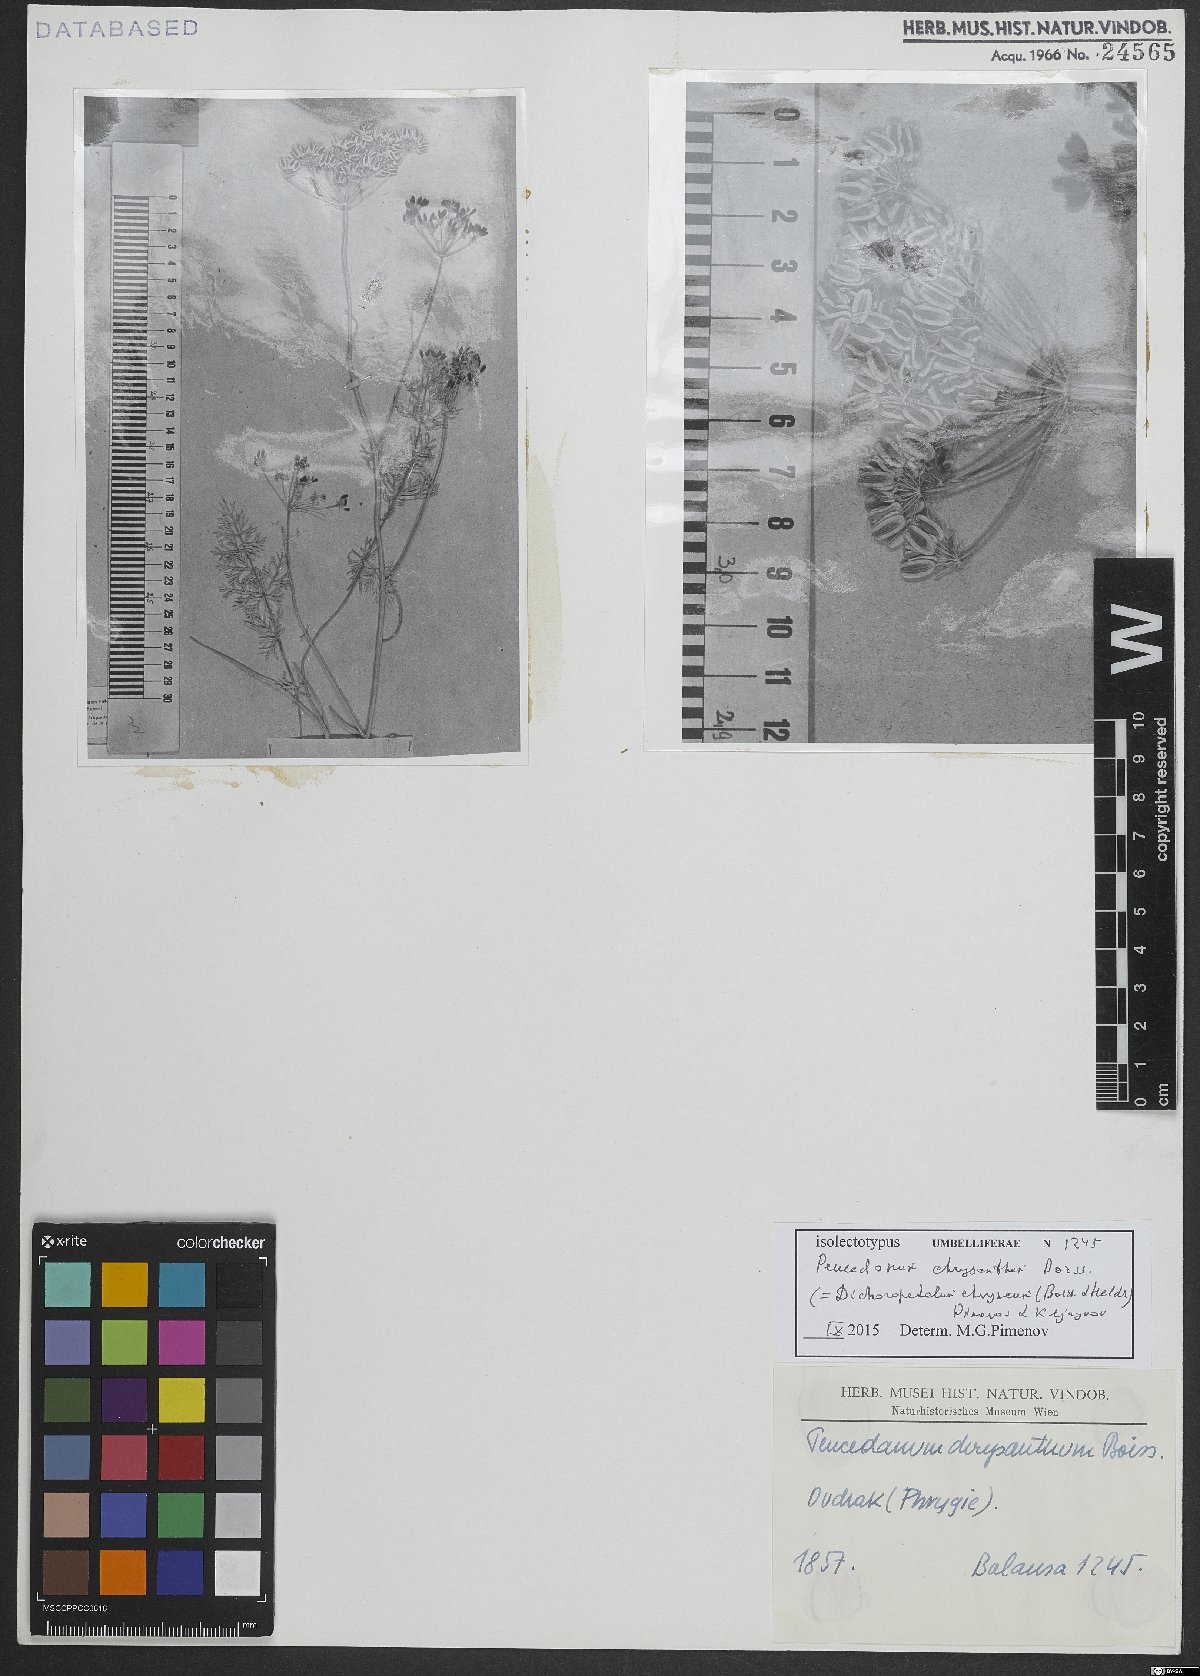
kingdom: Plantae
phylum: Tracheophyta
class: Magnoliopsida
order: Apiales
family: Apiaceae
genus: Dichoropetalum
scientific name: Dichoropetalum chryseum
